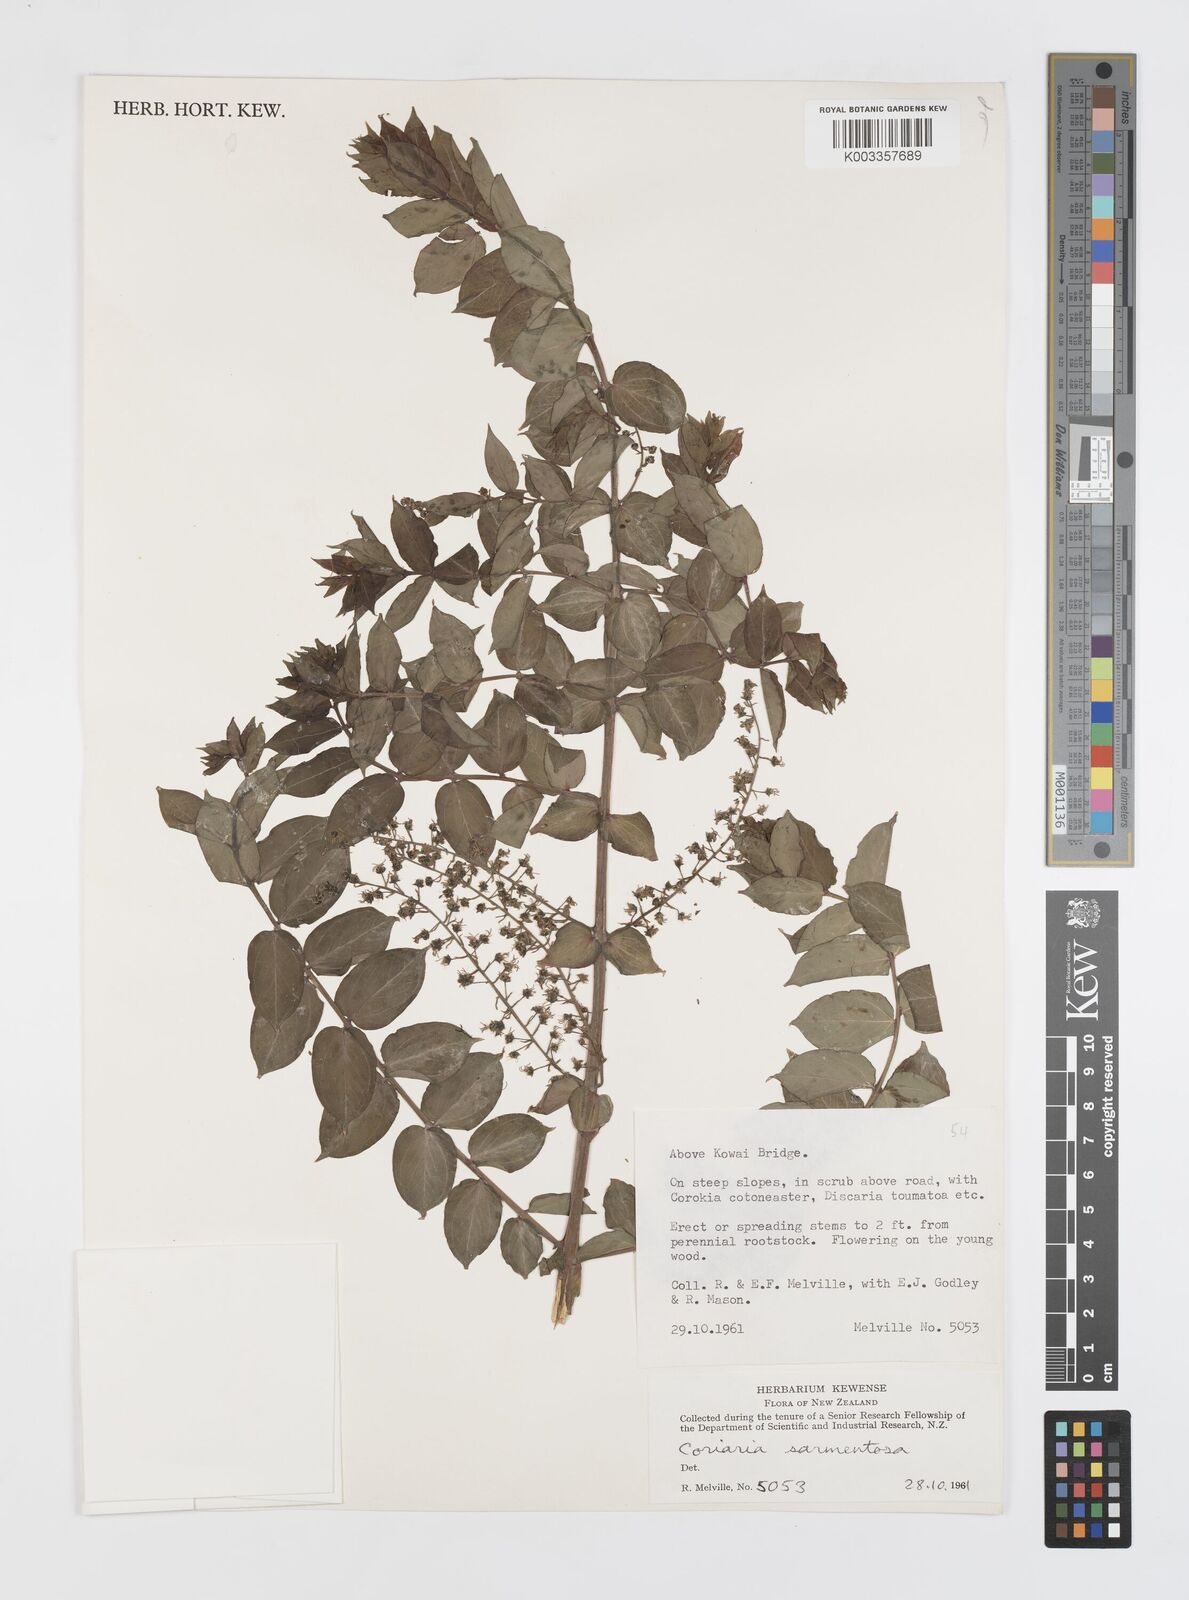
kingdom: Plantae
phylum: Tracheophyta
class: Magnoliopsida
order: Cucurbitales
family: Coriariaceae
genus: Coriaria
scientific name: Coriaria sarmentosa
